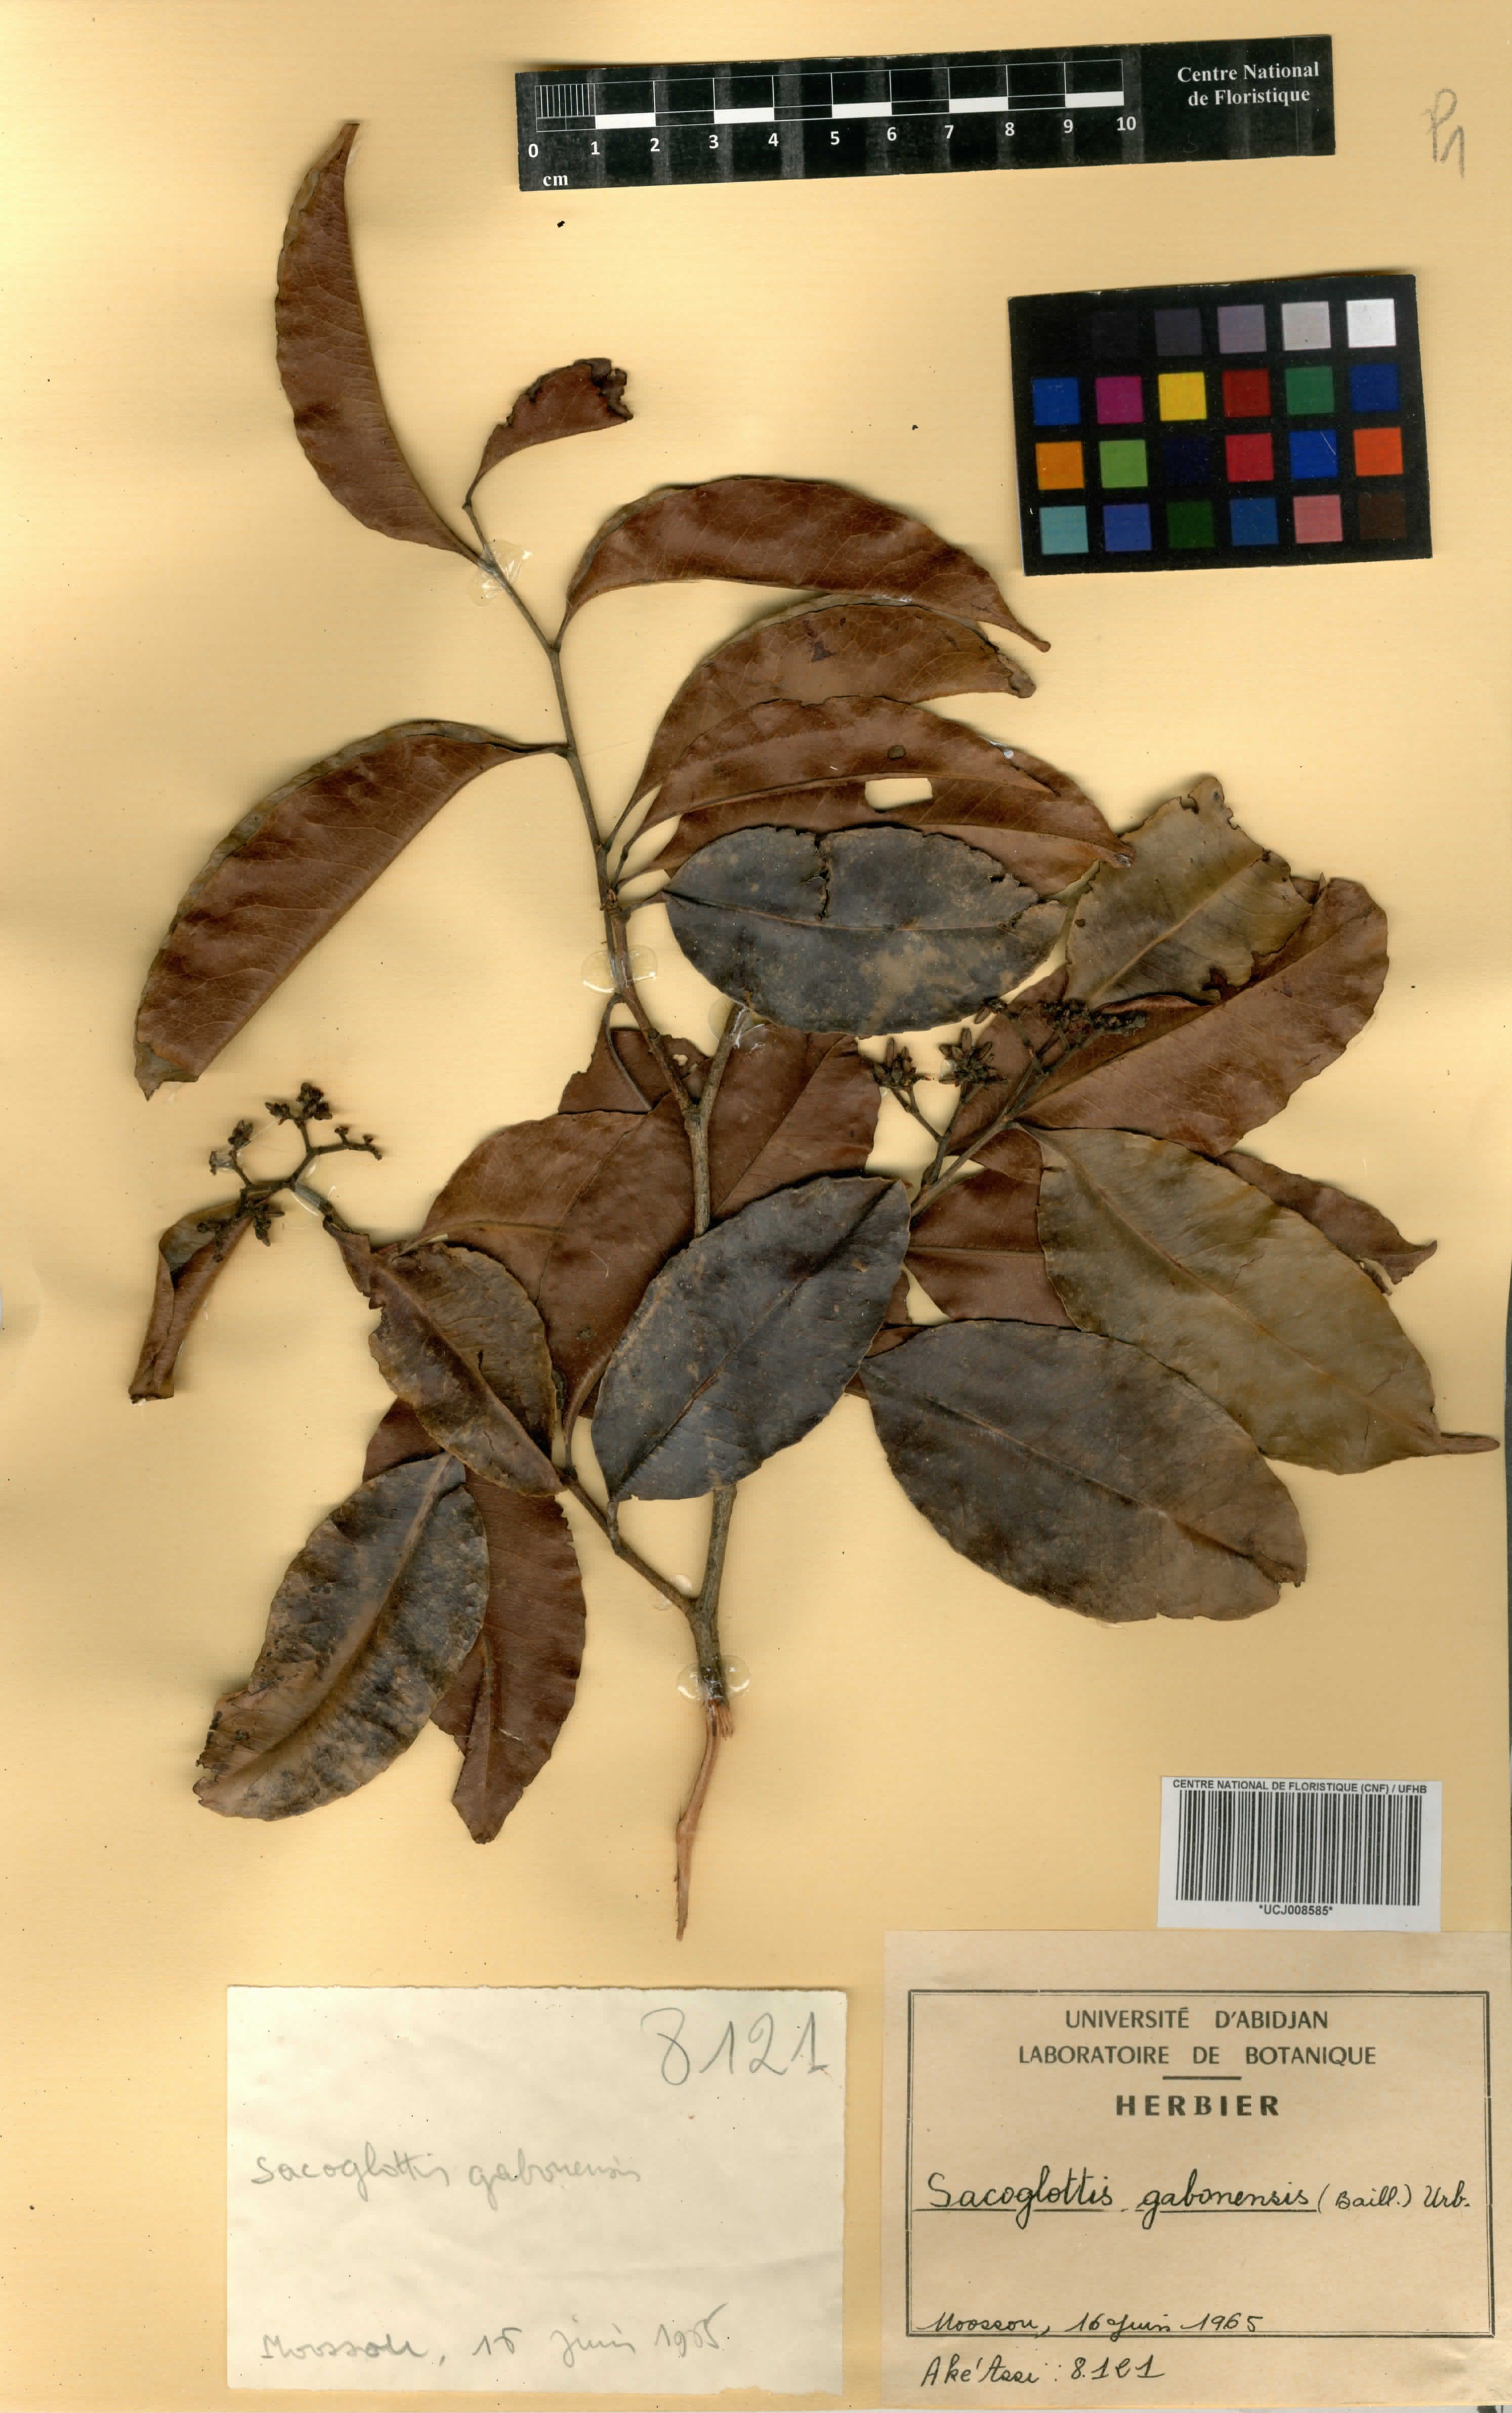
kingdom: Plantae
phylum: Tracheophyta
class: Magnoliopsida
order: Malpighiales
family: Humiriaceae
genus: Sacoglottis
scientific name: Sacoglottis gabonensis
